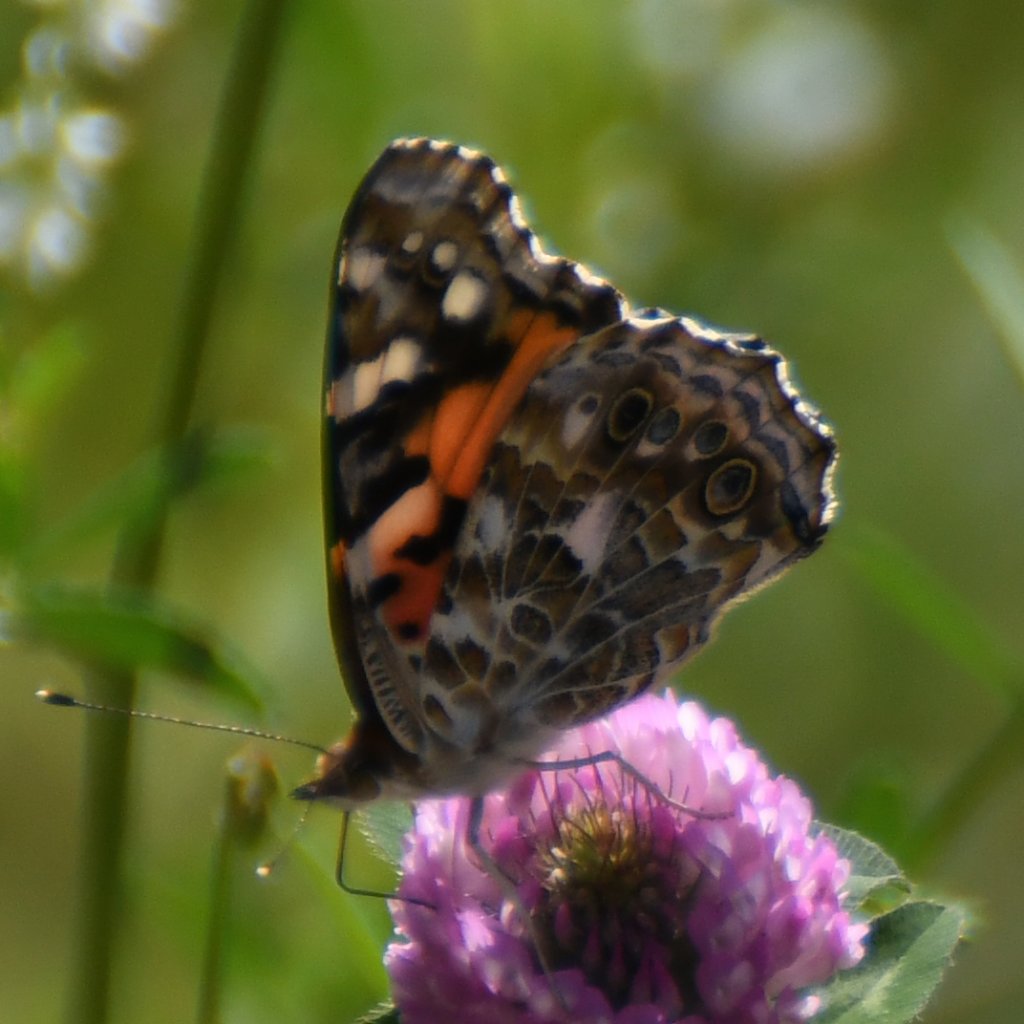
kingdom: Animalia
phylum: Arthropoda
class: Insecta
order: Lepidoptera
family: Nymphalidae
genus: Vanessa
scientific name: Vanessa cardui
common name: Painted Lady
